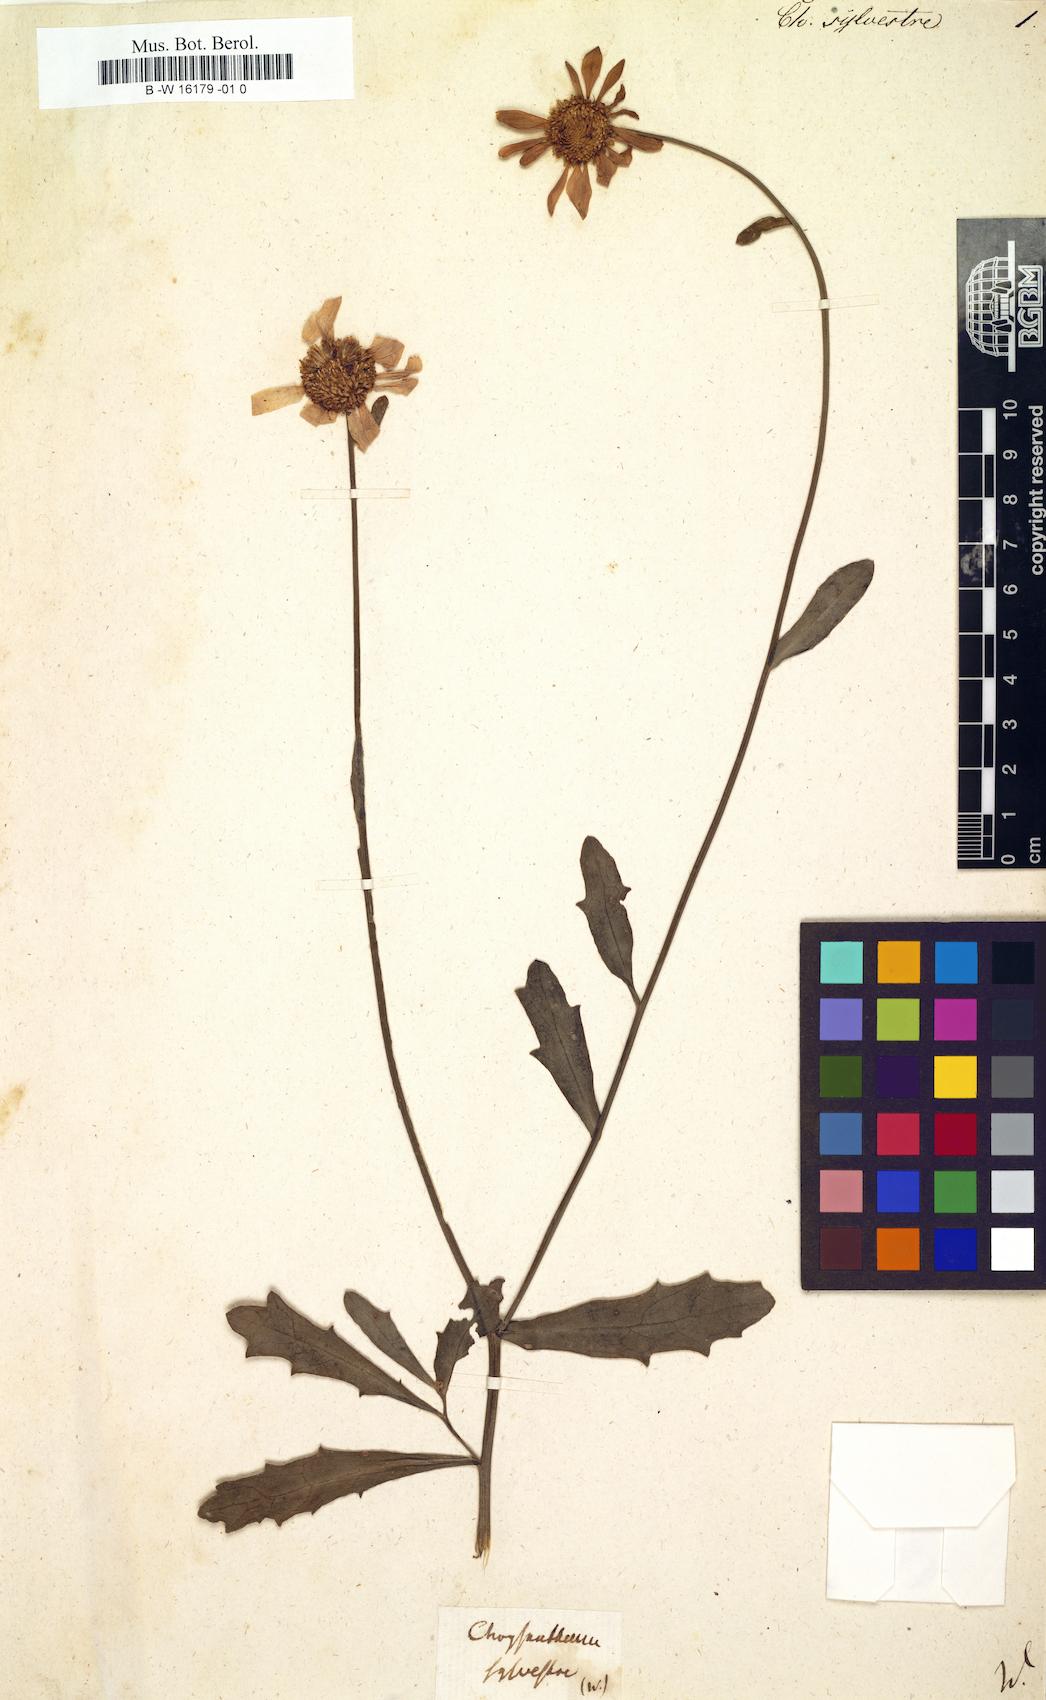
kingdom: Plantae
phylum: Tracheophyta
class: Magnoliopsida
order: Asterales
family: Asteraceae
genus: Chrysanthemum
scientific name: Chrysanthemum sylvestre
